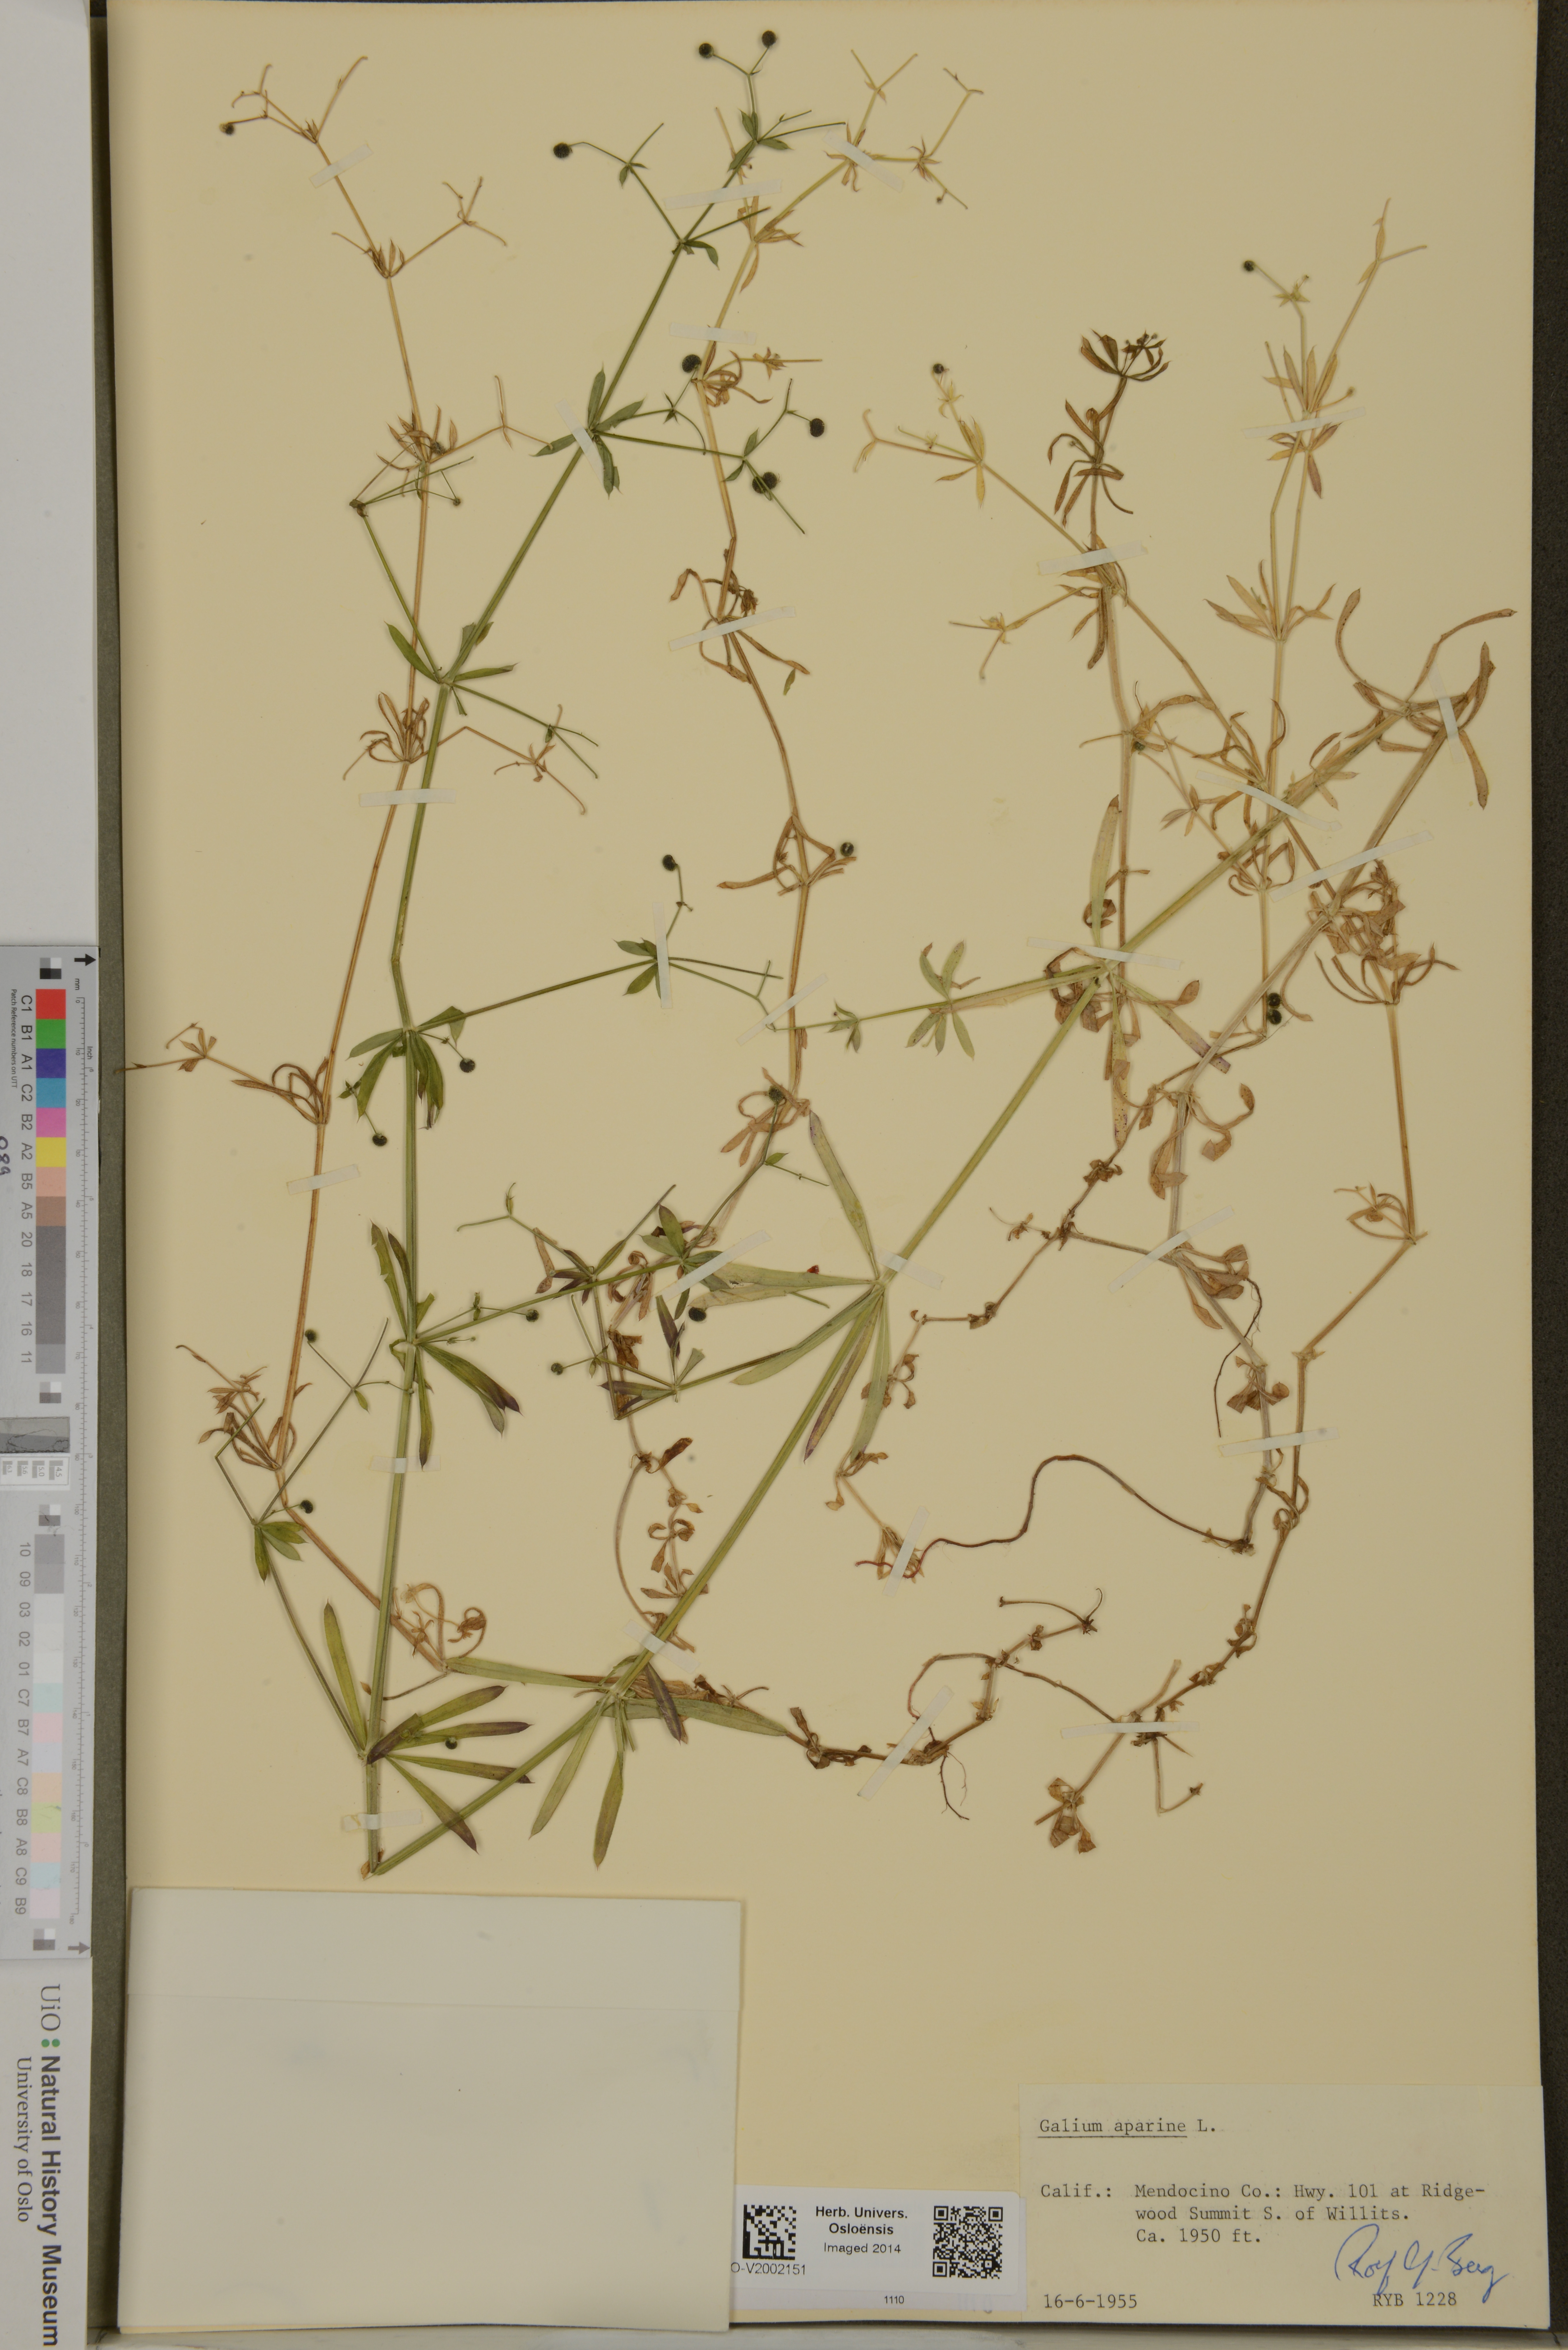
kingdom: Plantae
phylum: Tracheophyta
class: Magnoliopsida
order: Gentianales
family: Rubiaceae
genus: Galium
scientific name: Galium aparine
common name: Cleavers
